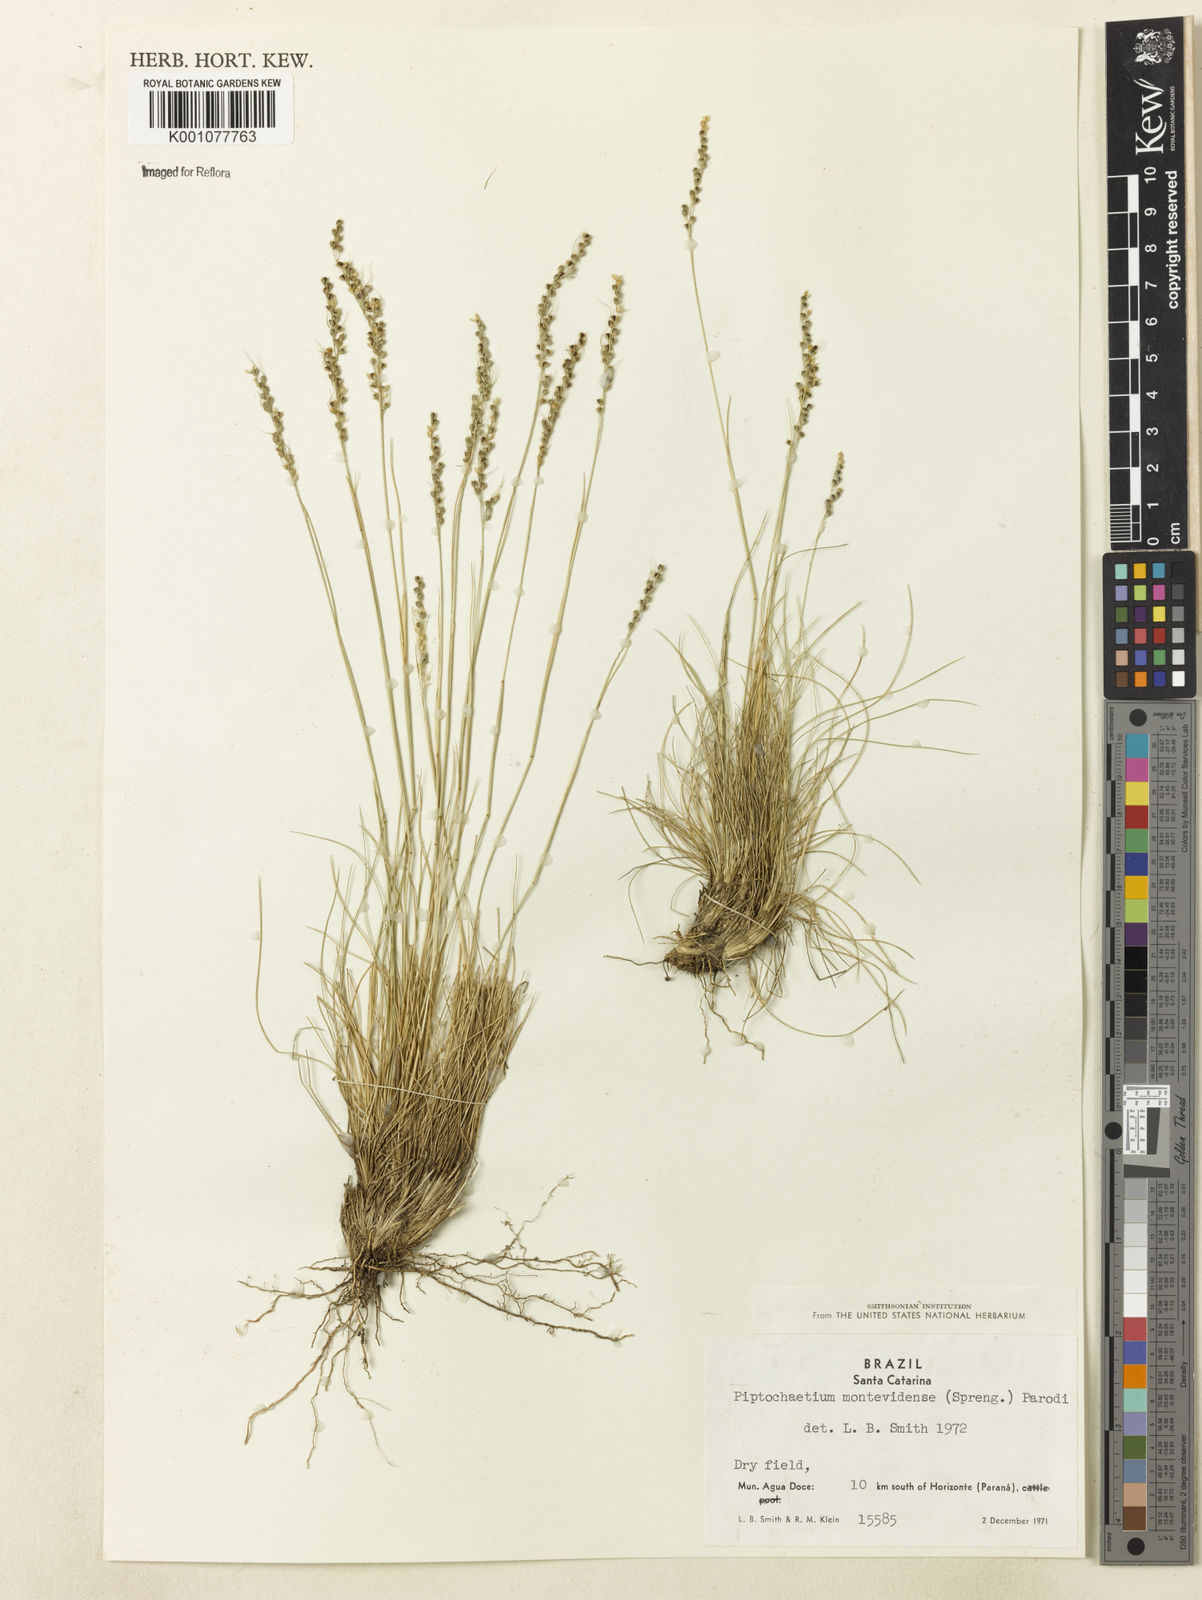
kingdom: Plantae
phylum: Tracheophyta
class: Liliopsida
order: Poales
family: Poaceae
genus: Piptochaetium
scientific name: Piptochaetium montevidense
